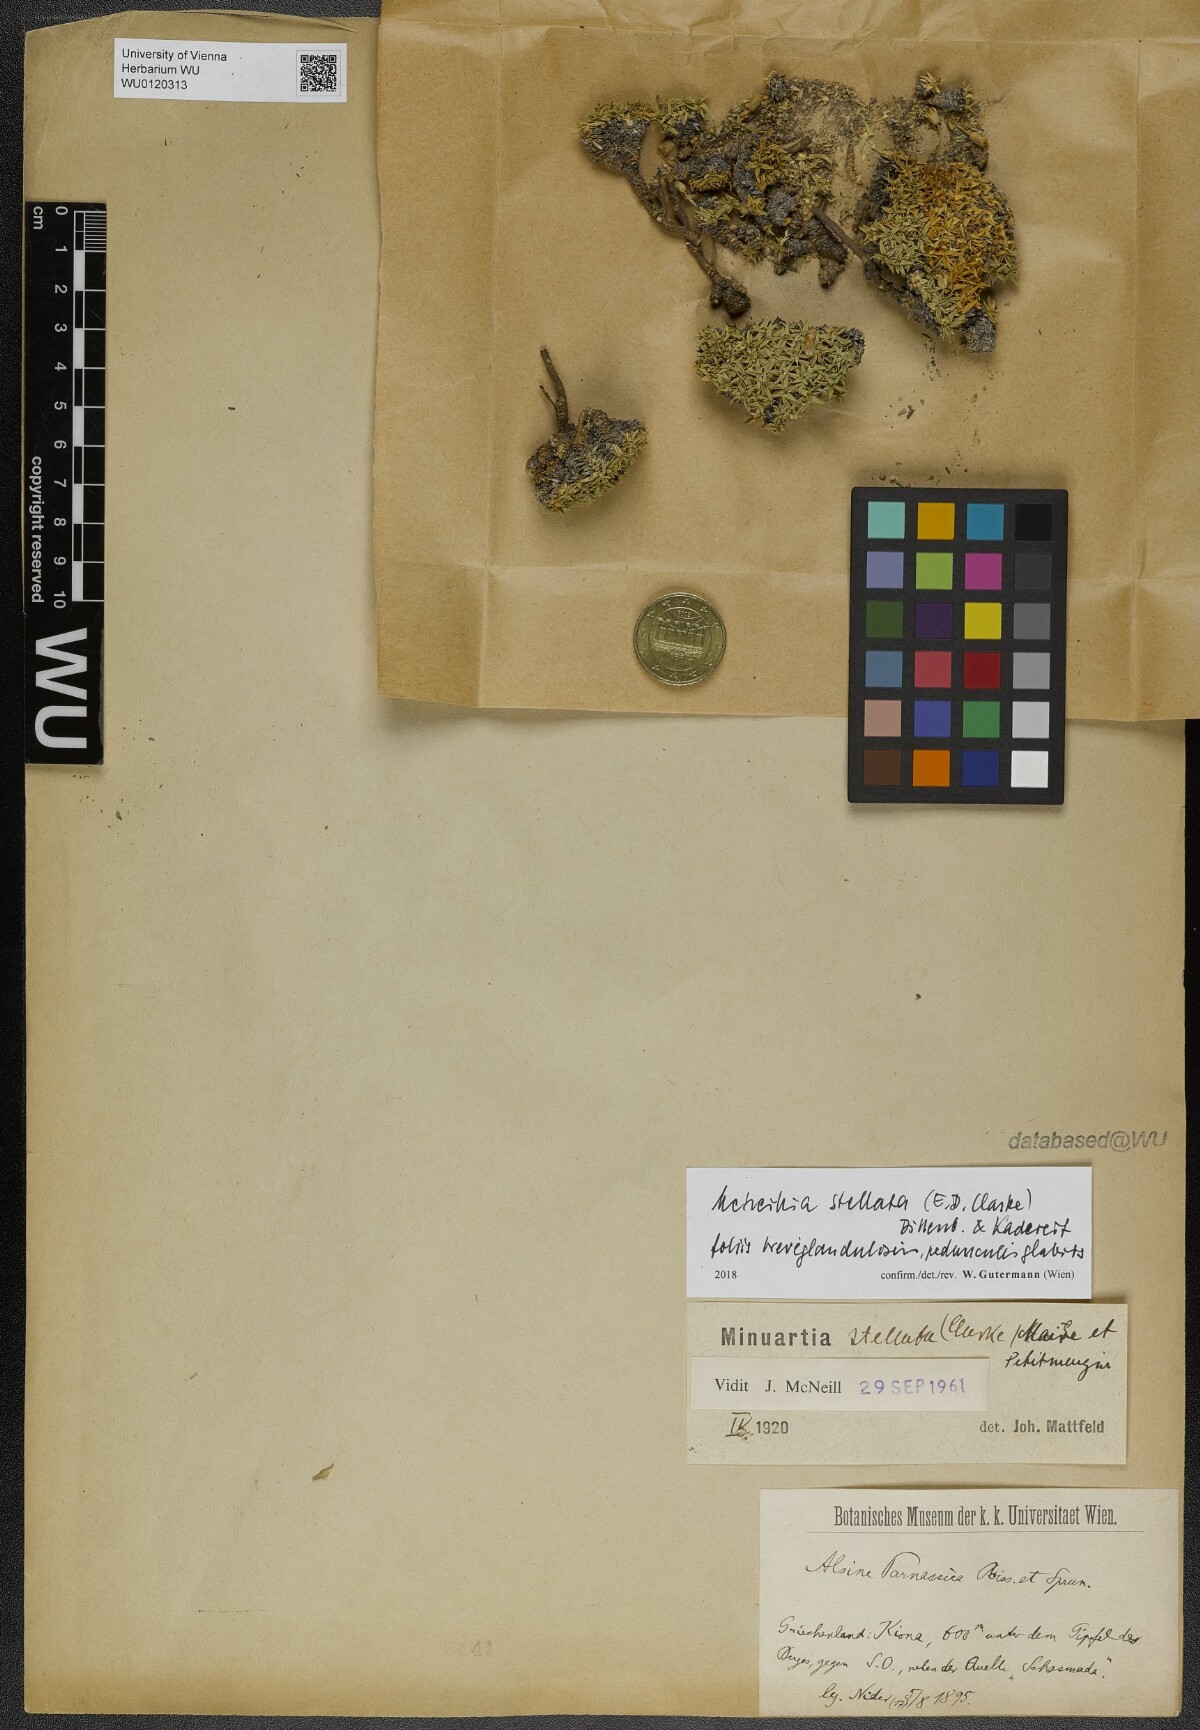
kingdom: Plantae
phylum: Tracheophyta
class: Magnoliopsida
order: Caryophyllales
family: Caryophyllaceae
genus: Mcneillia
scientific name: Mcneillia stellata
